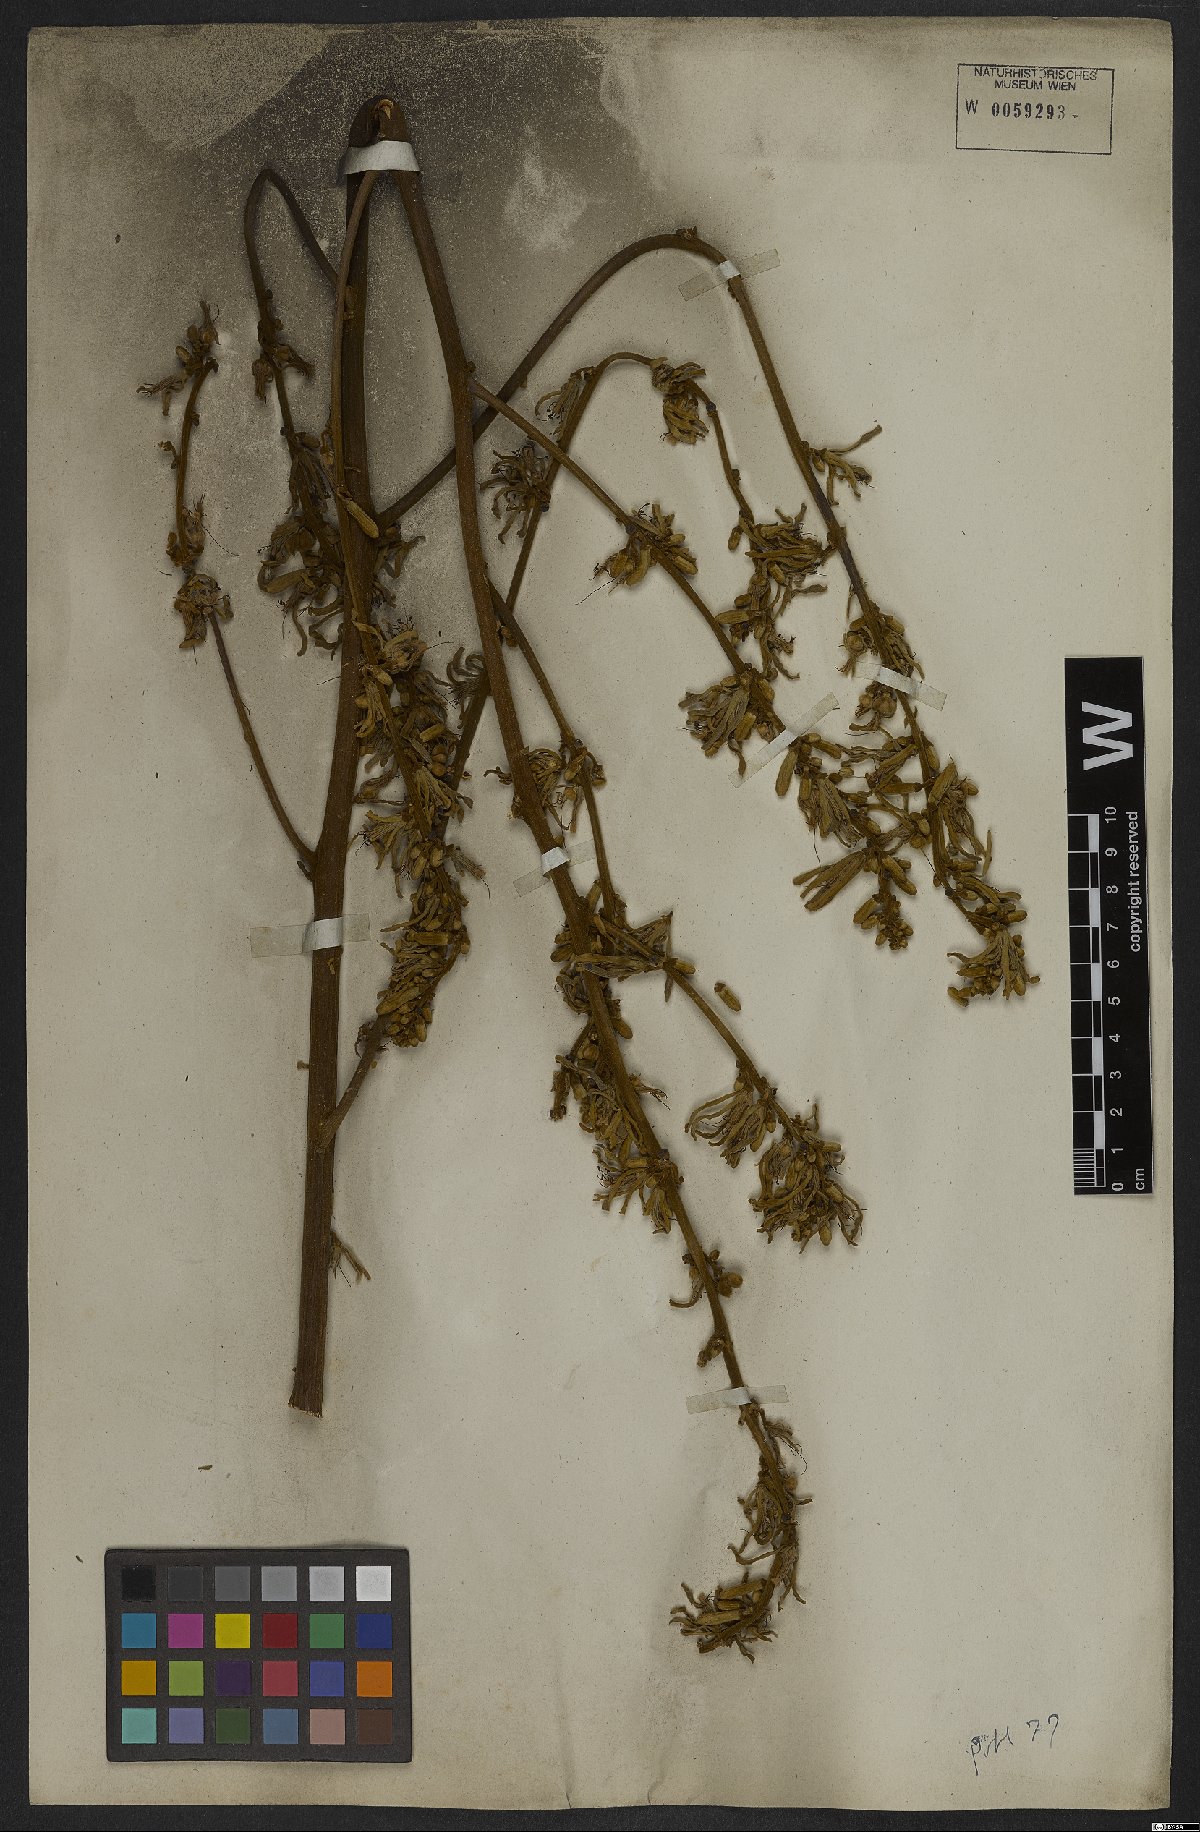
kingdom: Plantae
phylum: Tracheophyta
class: Magnoliopsida
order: Sapindales
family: Simaroubaceae
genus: Homalolepis
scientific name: Homalolepis trichilioides
